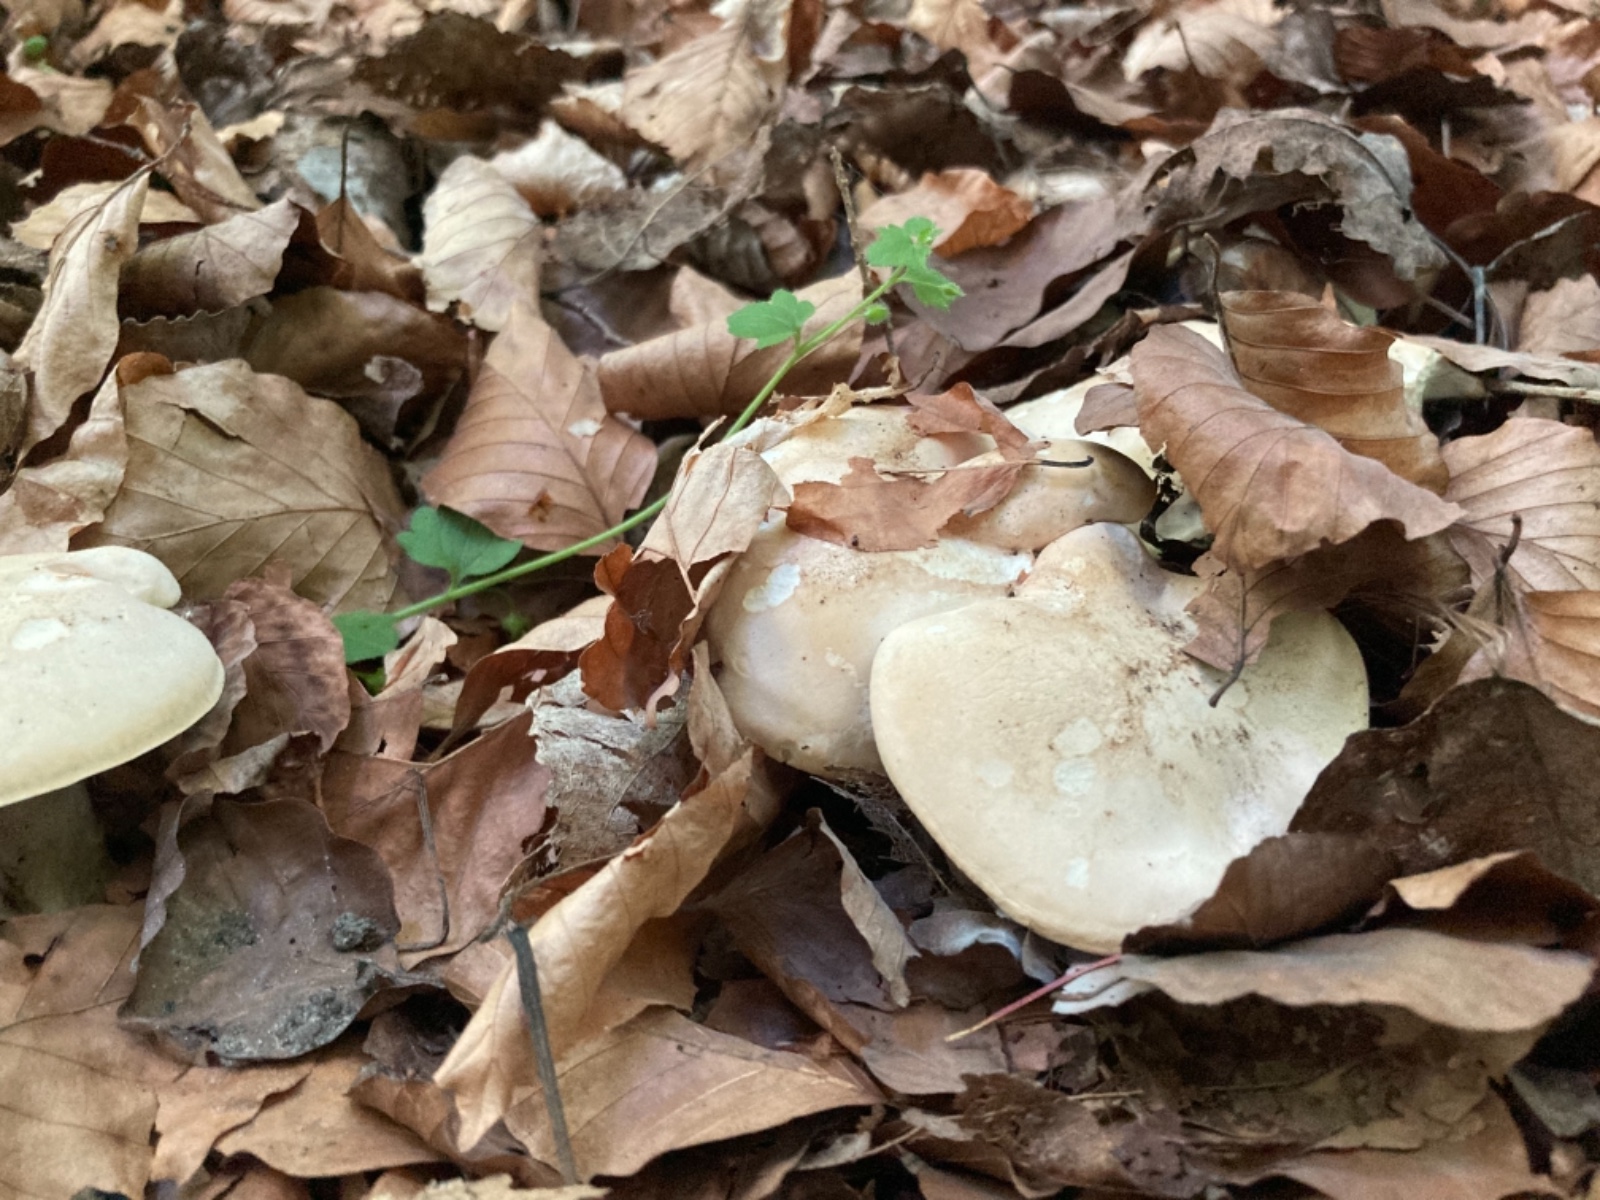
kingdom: Fungi
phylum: Basidiomycota
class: Agaricomycetes
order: Agaricales
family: Lyophyllaceae
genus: Calocybe
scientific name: Calocybe gambosa
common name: vårmusseron
